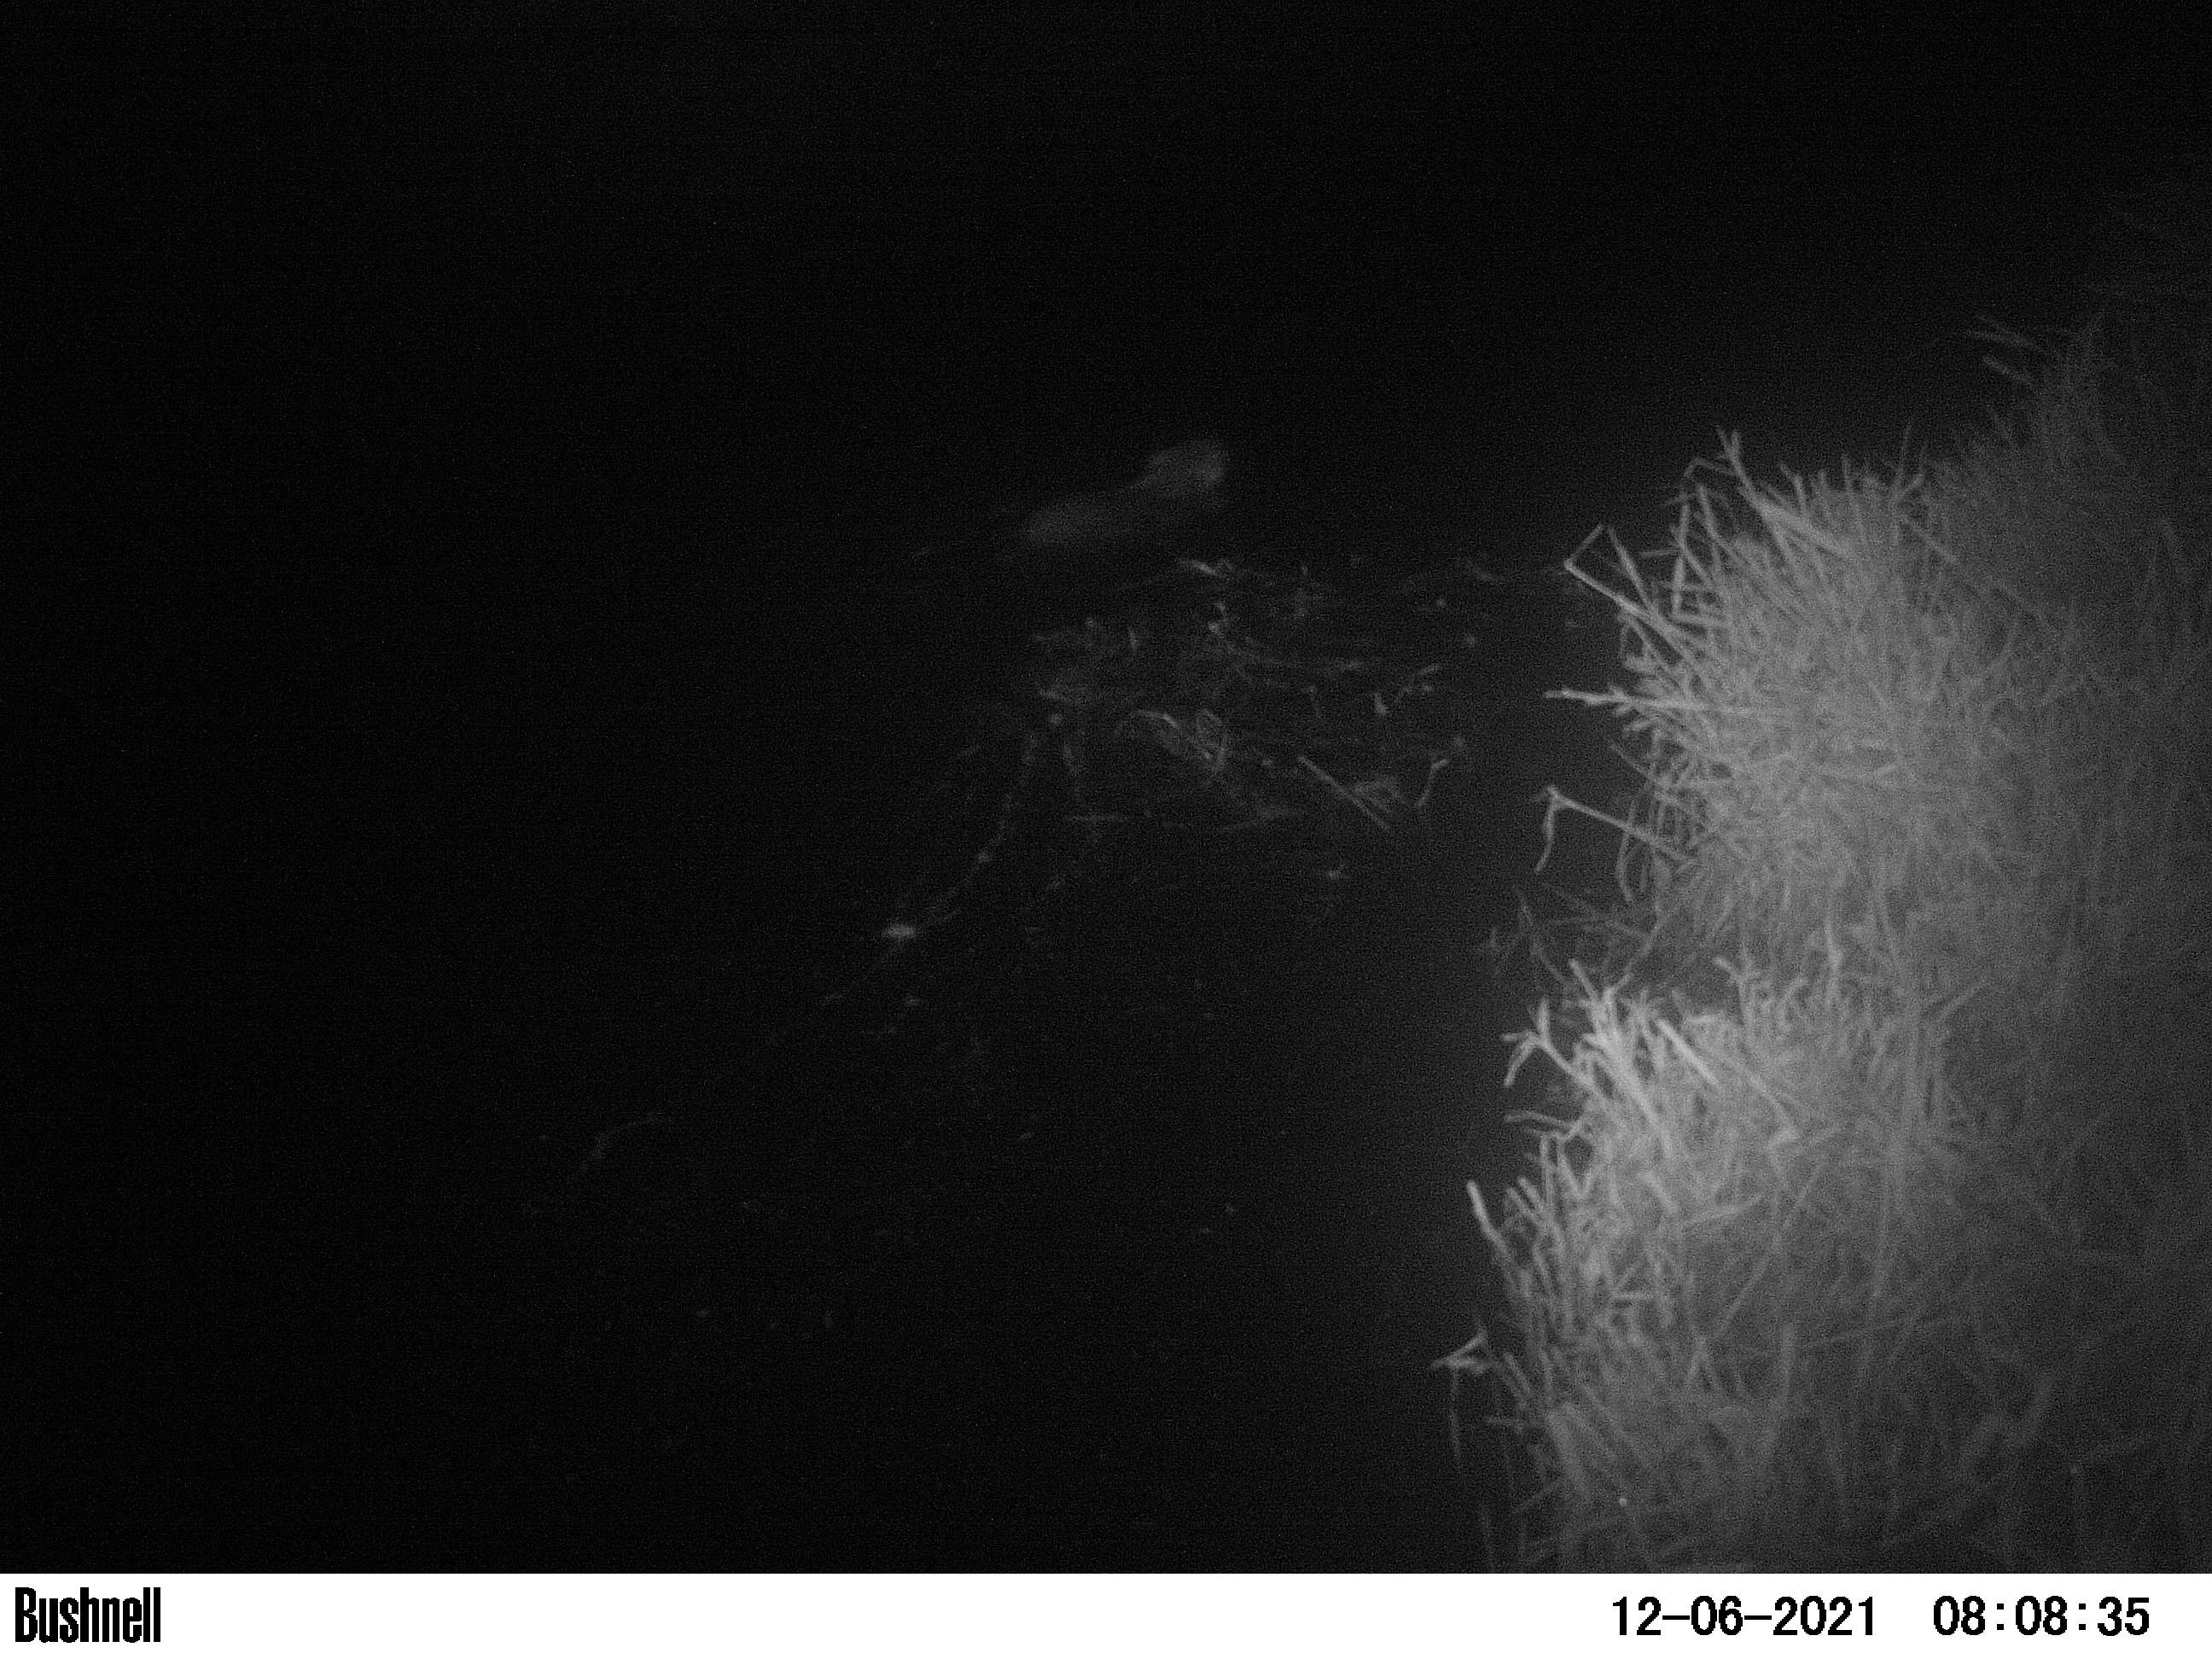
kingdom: Animalia
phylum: Chordata
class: Mammalia
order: Rodentia
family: Muridae
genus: Rattus
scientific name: Rattus norvegicus
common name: Brown rat
